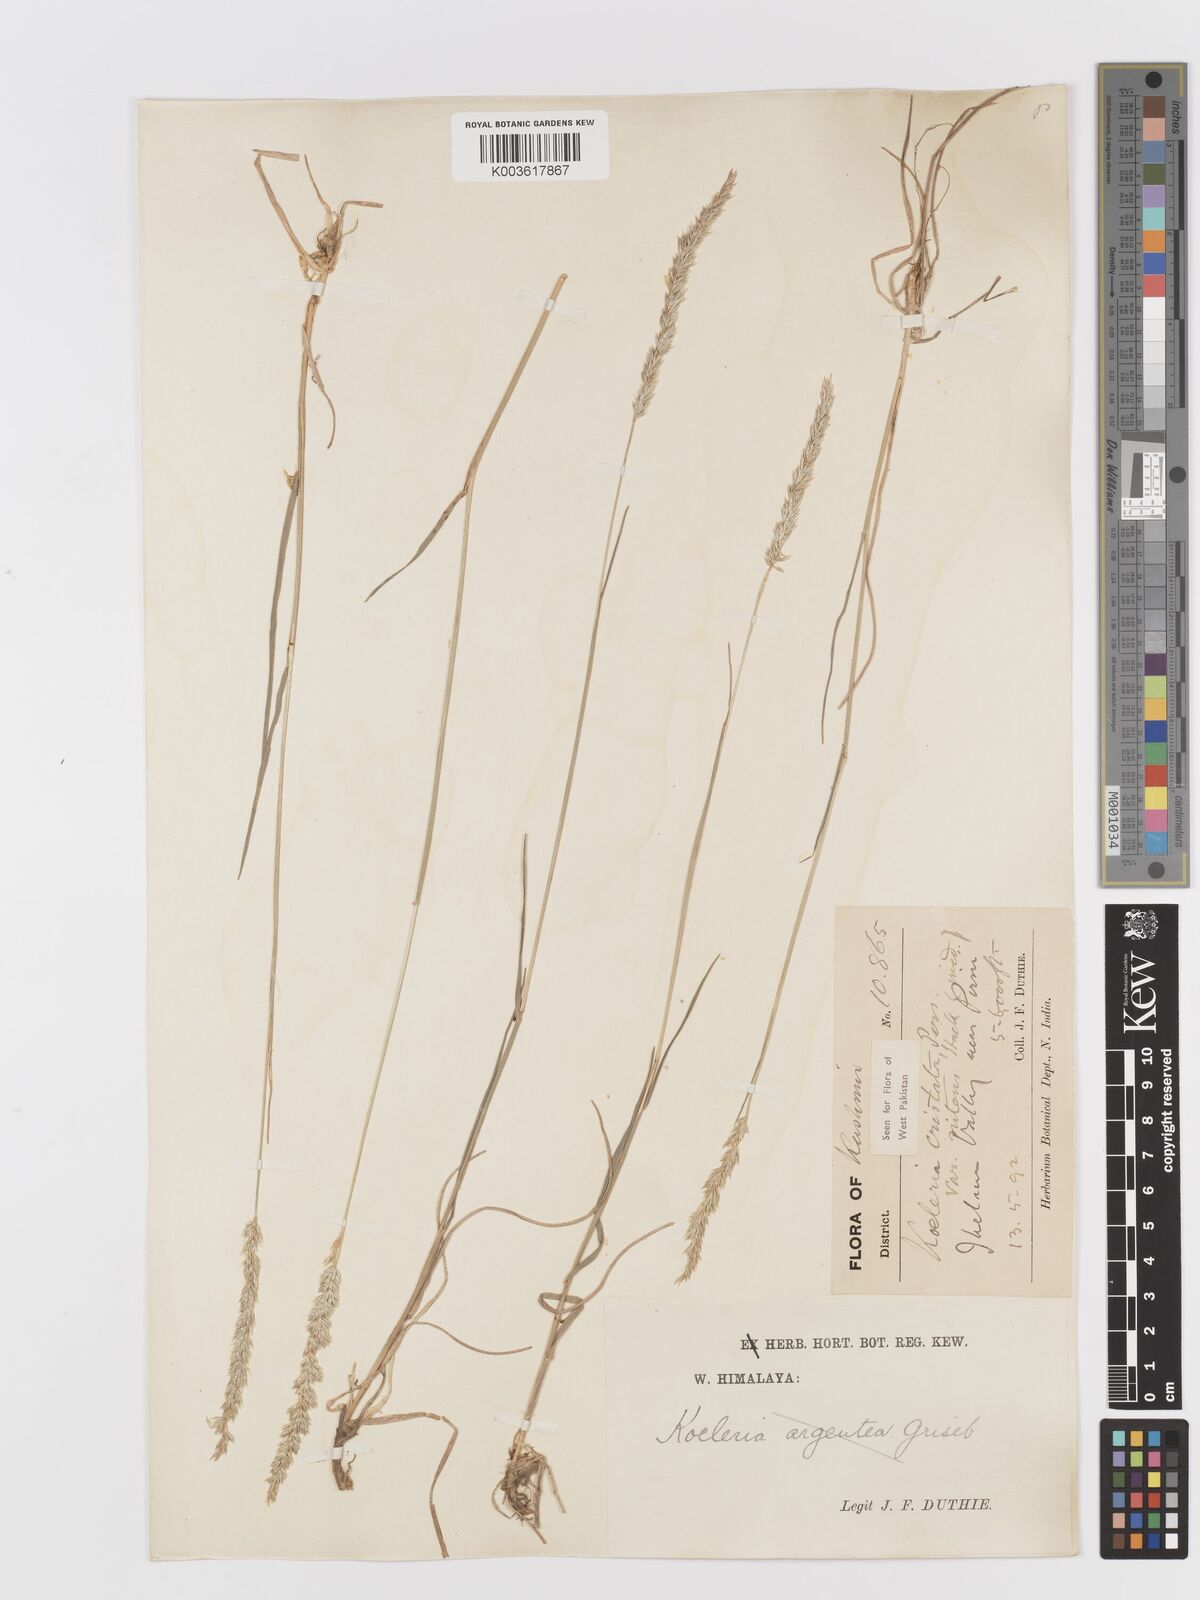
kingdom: Plantae
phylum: Tracheophyta
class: Liliopsida
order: Poales
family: Poaceae
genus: Koeleria
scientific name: Koeleria
